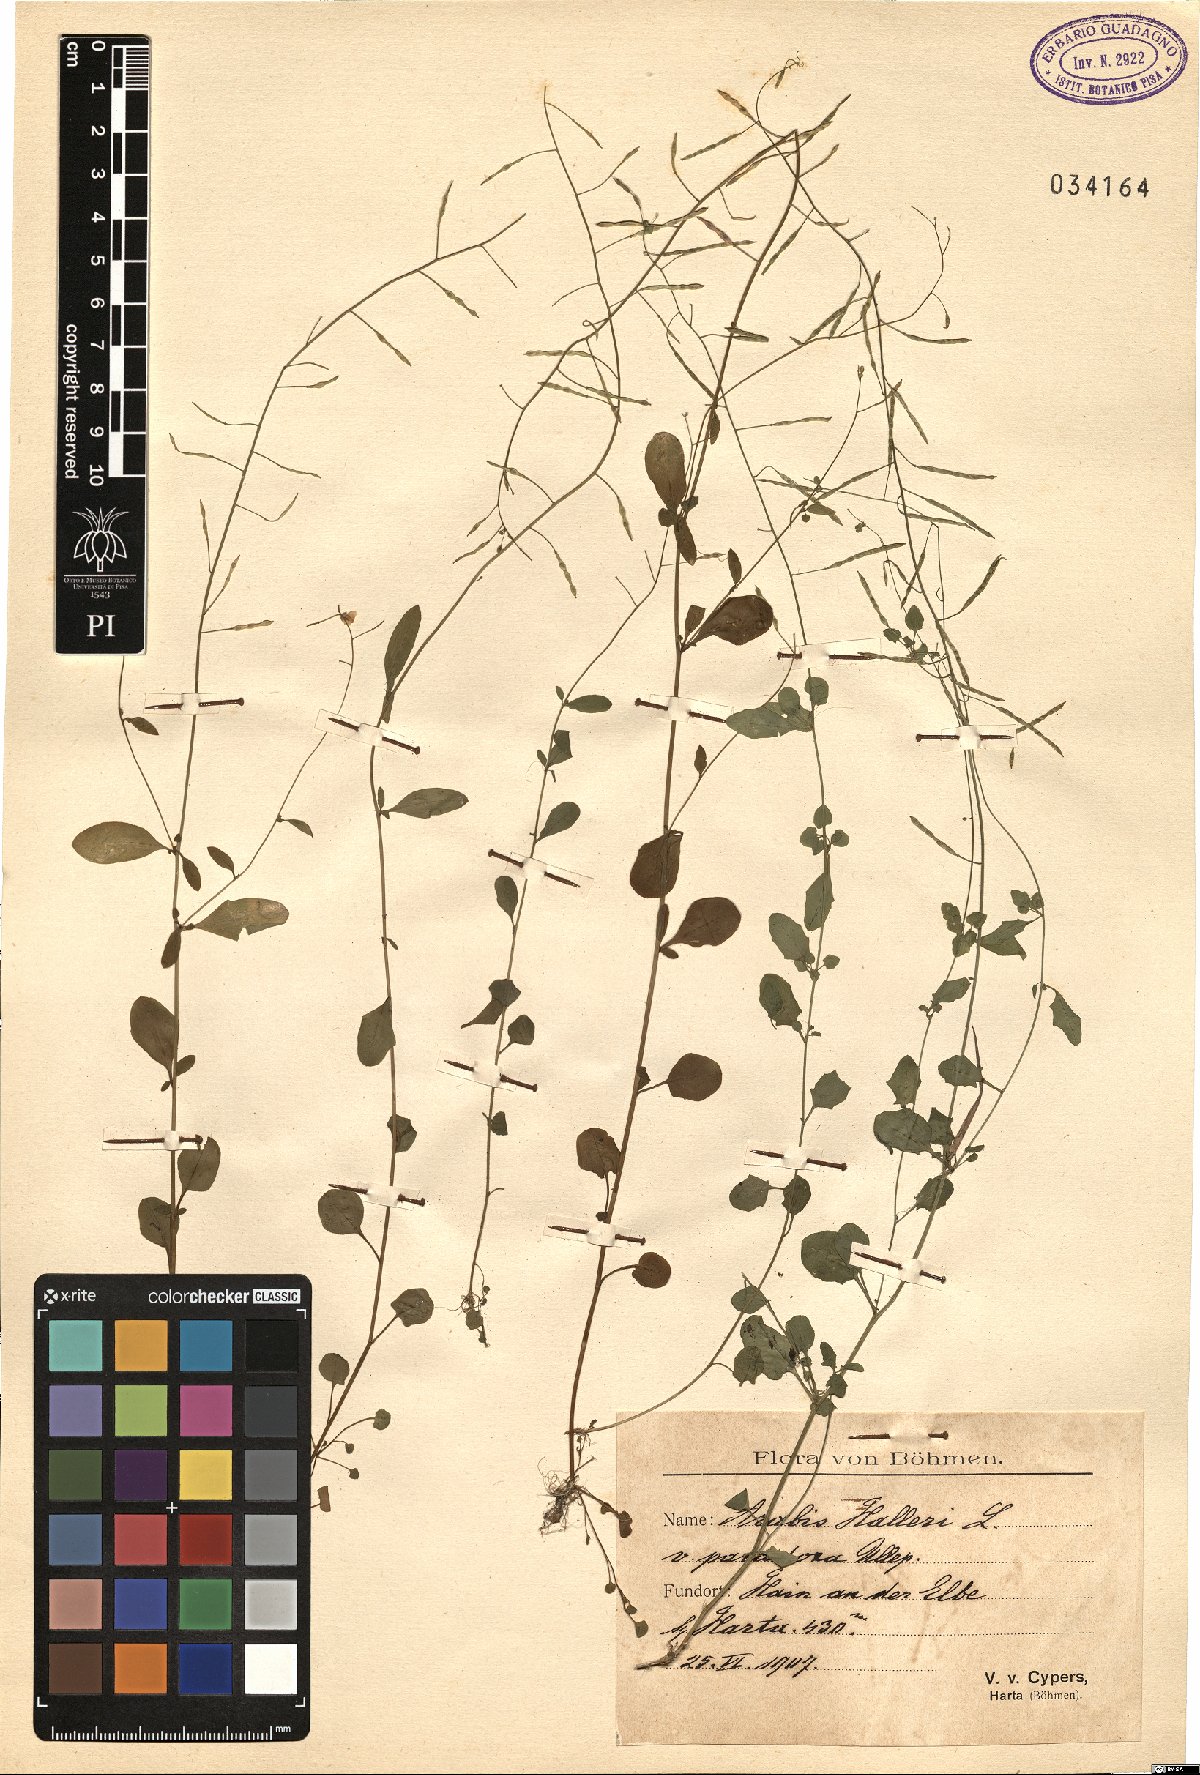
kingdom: Plantae
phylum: Tracheophyta
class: Magnoliopsida
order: Brassicales
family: Brassicaceae
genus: Arabidopsis
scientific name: Arabidopsis halleri
